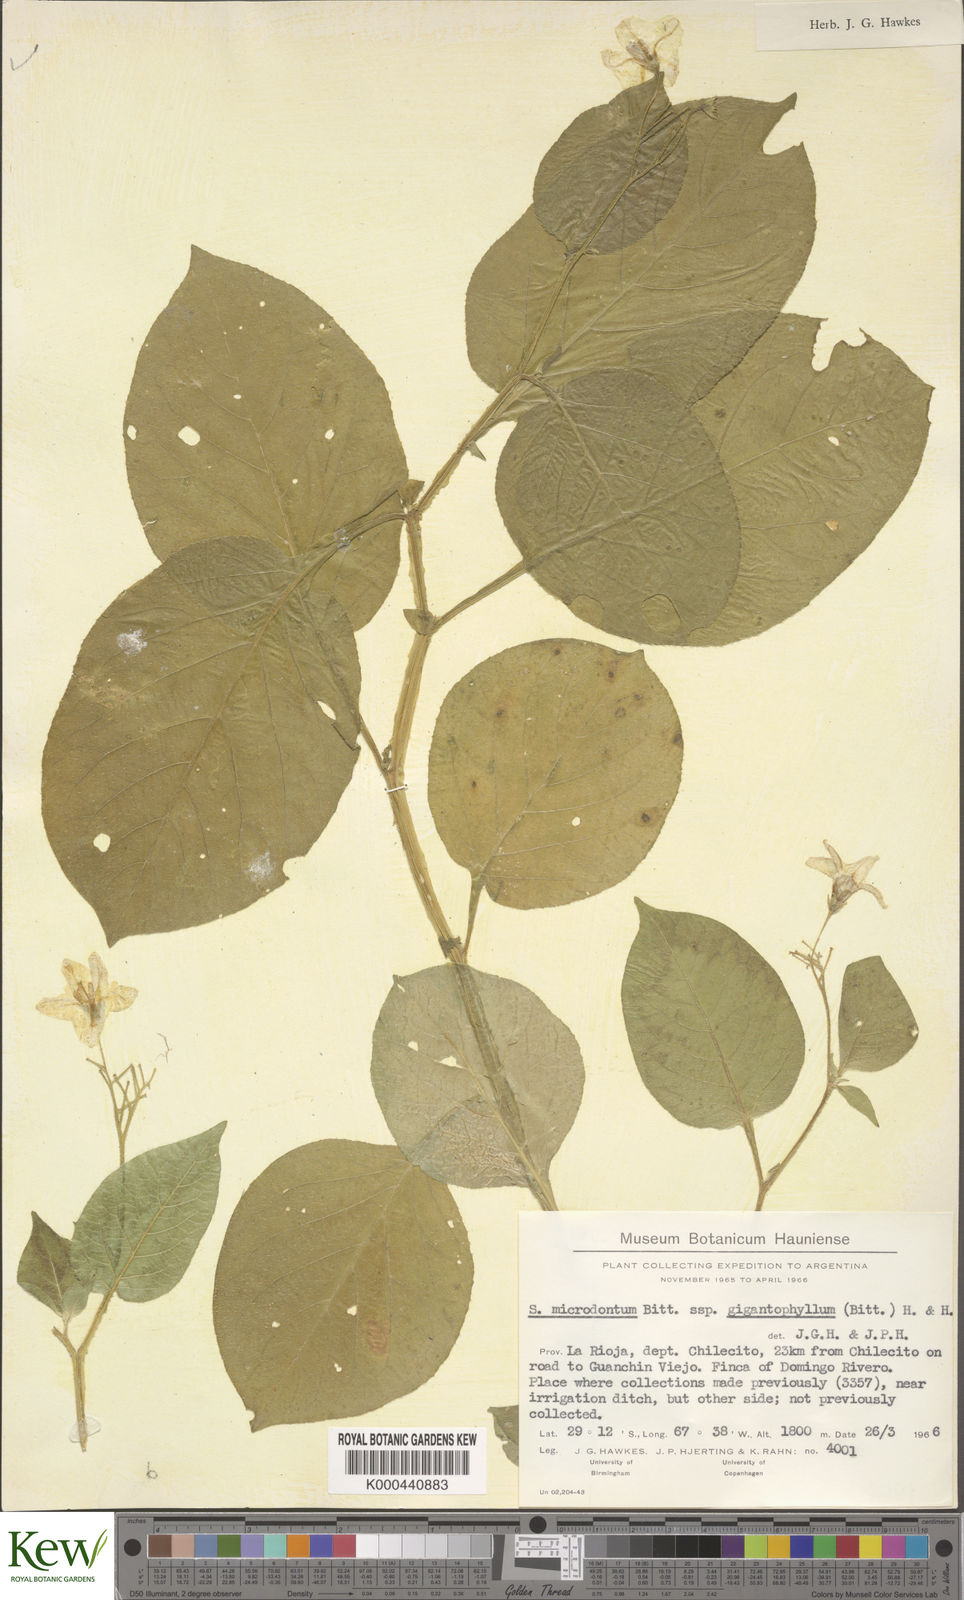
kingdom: Plantae
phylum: Tracheophyta
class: Magnoliopsida
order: Solanales
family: Solanaceae
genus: Solanum
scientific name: Solanum microdontum
